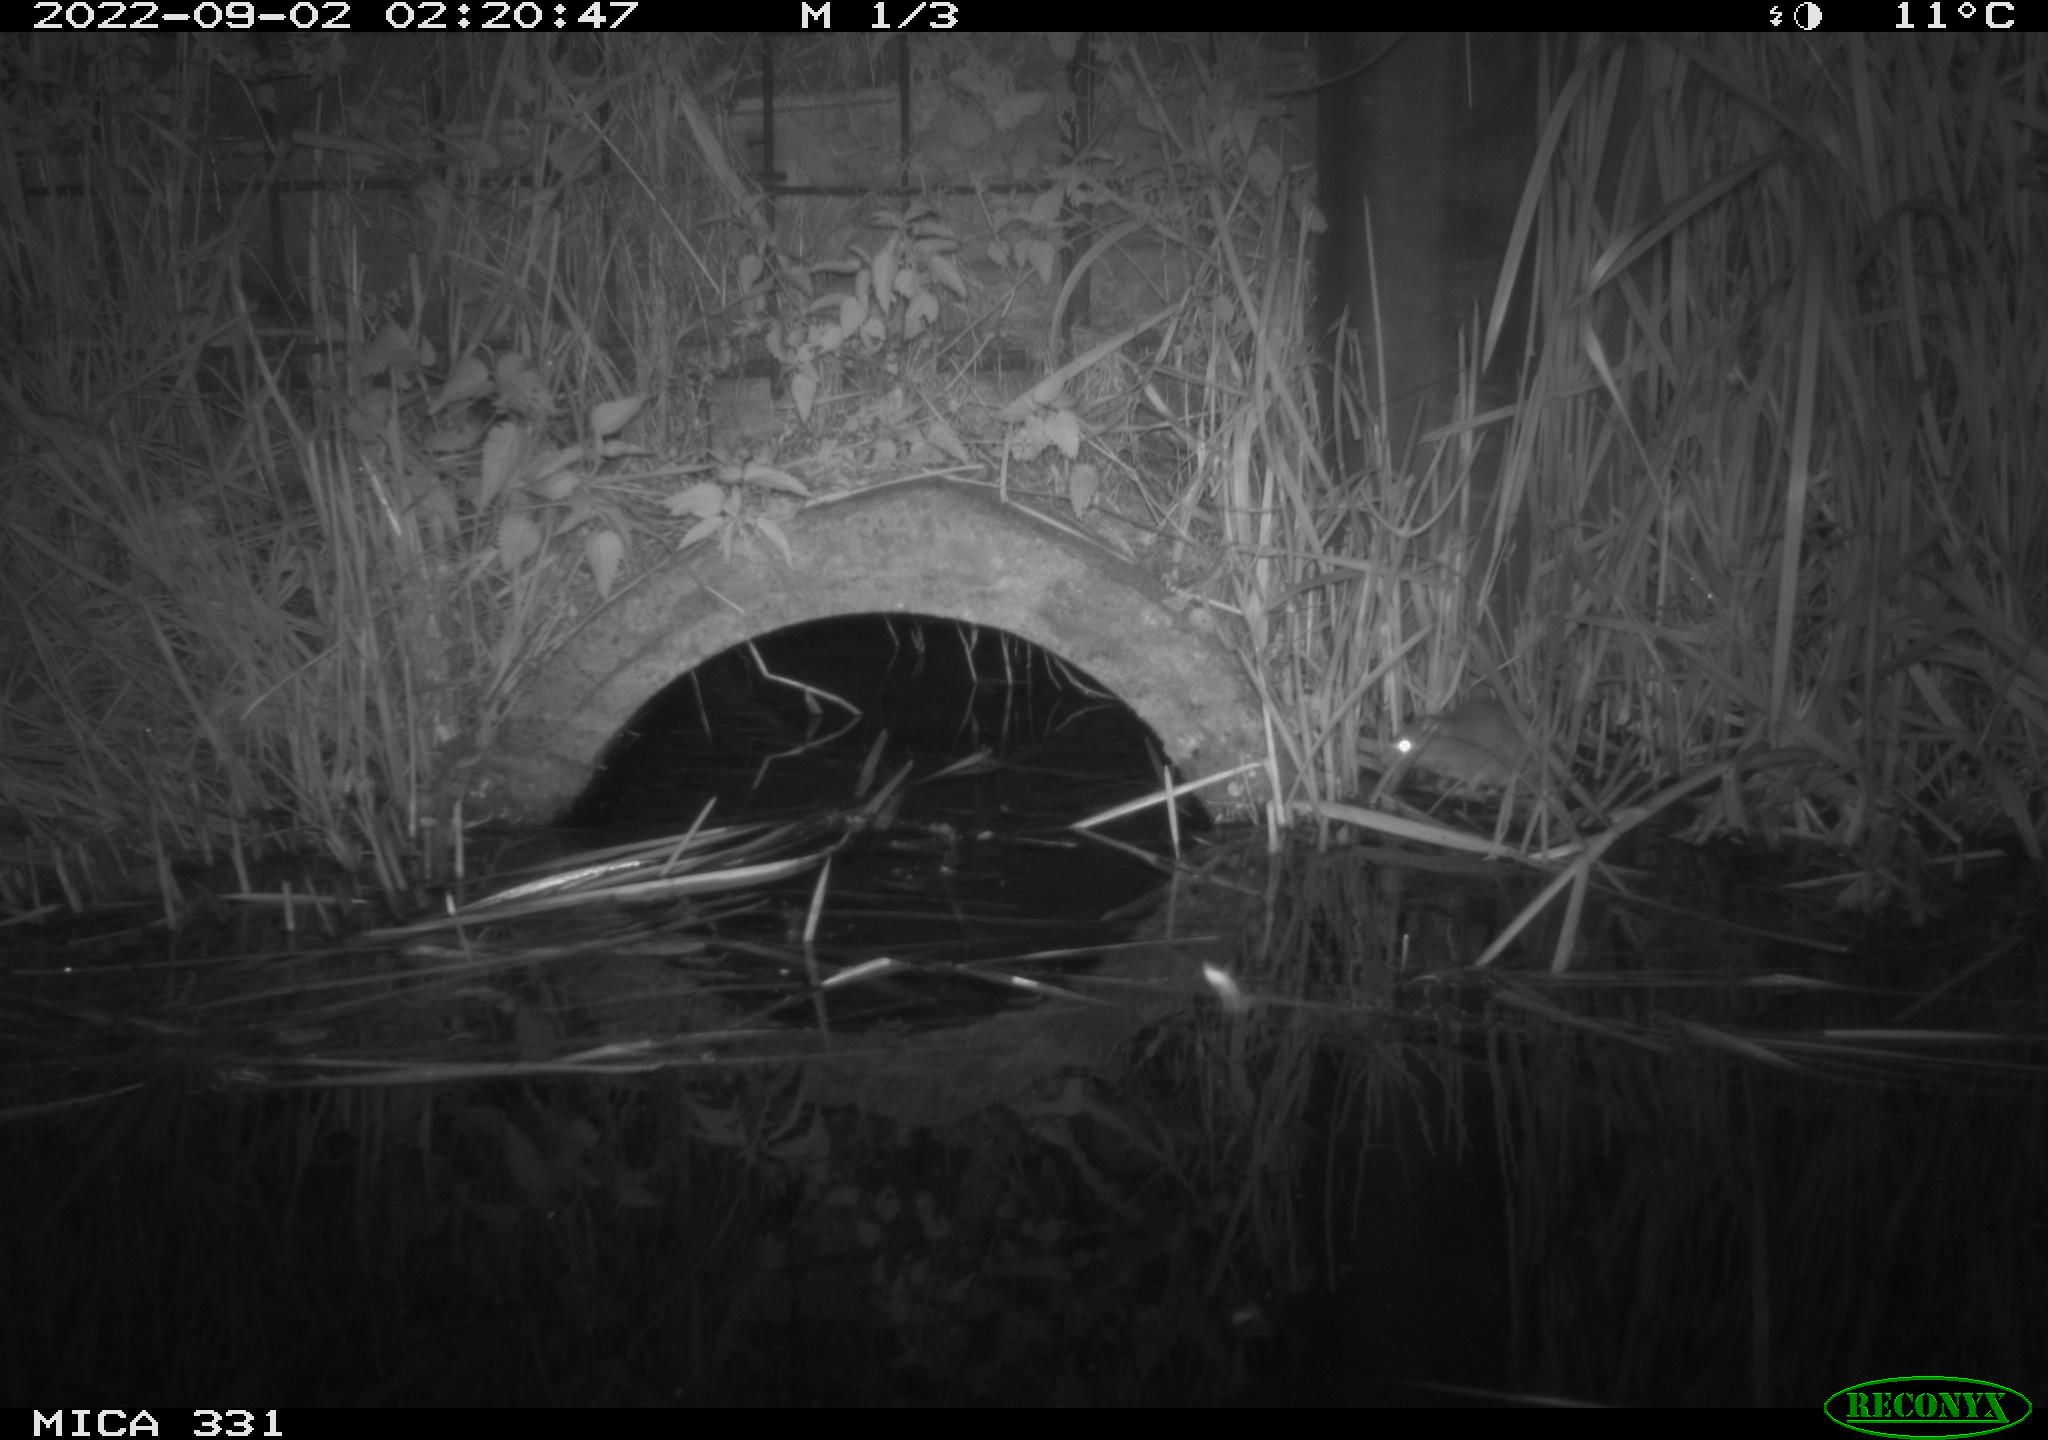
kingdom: Animalia
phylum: Chordata
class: Mammalia
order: Rodentia
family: Muridae
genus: Rattus
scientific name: Rattus norvegicus
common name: Brown rat
